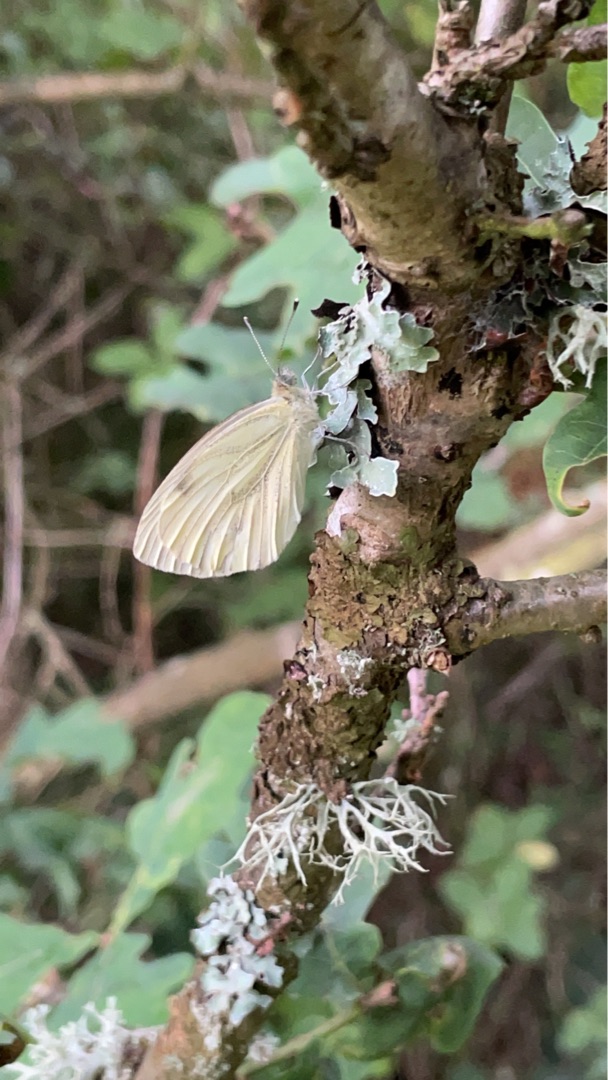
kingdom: Animalia
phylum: Arthropoda
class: Insecta
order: Lepidoptera
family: Pieridae
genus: Pieris
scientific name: Pieris napi
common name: Grønåret kålsommerfugl
